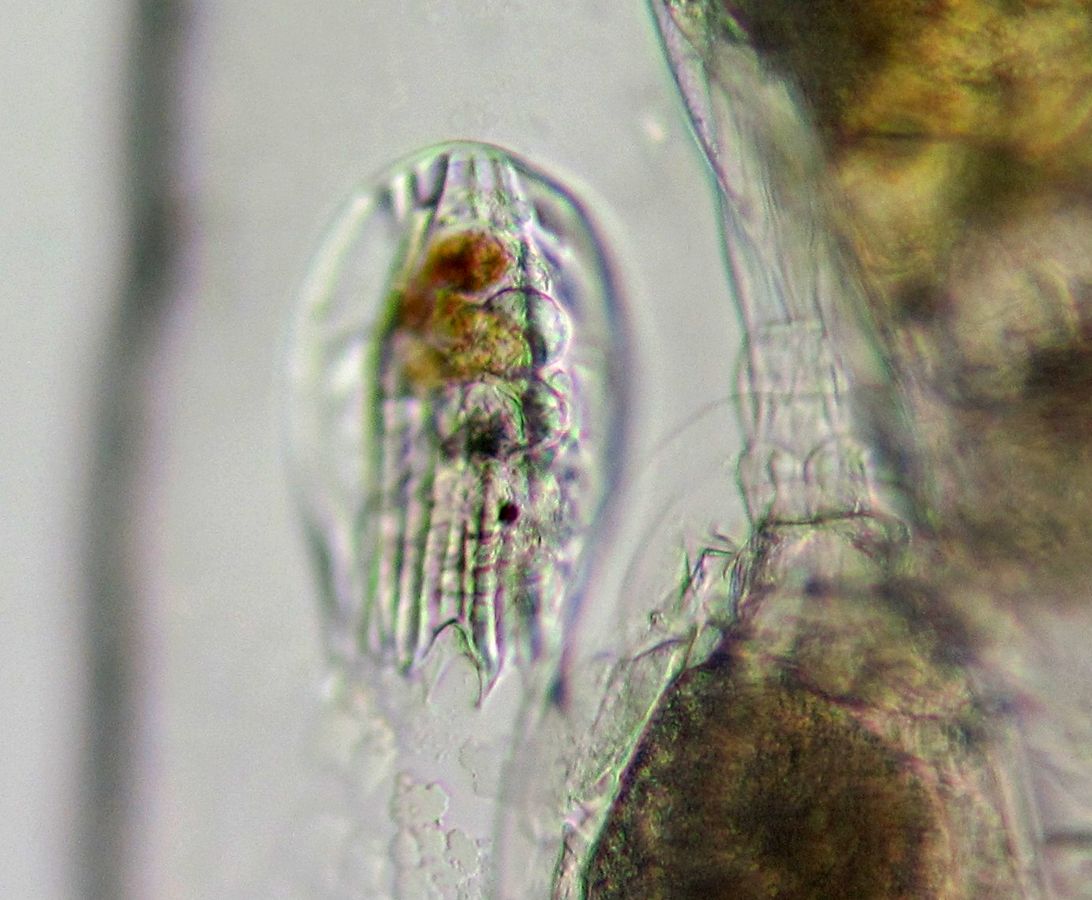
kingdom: Animalia
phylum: Rotifera
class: Eurotatoria
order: Ploima
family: Brachionidae
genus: Notholca
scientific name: Notholca squamula
